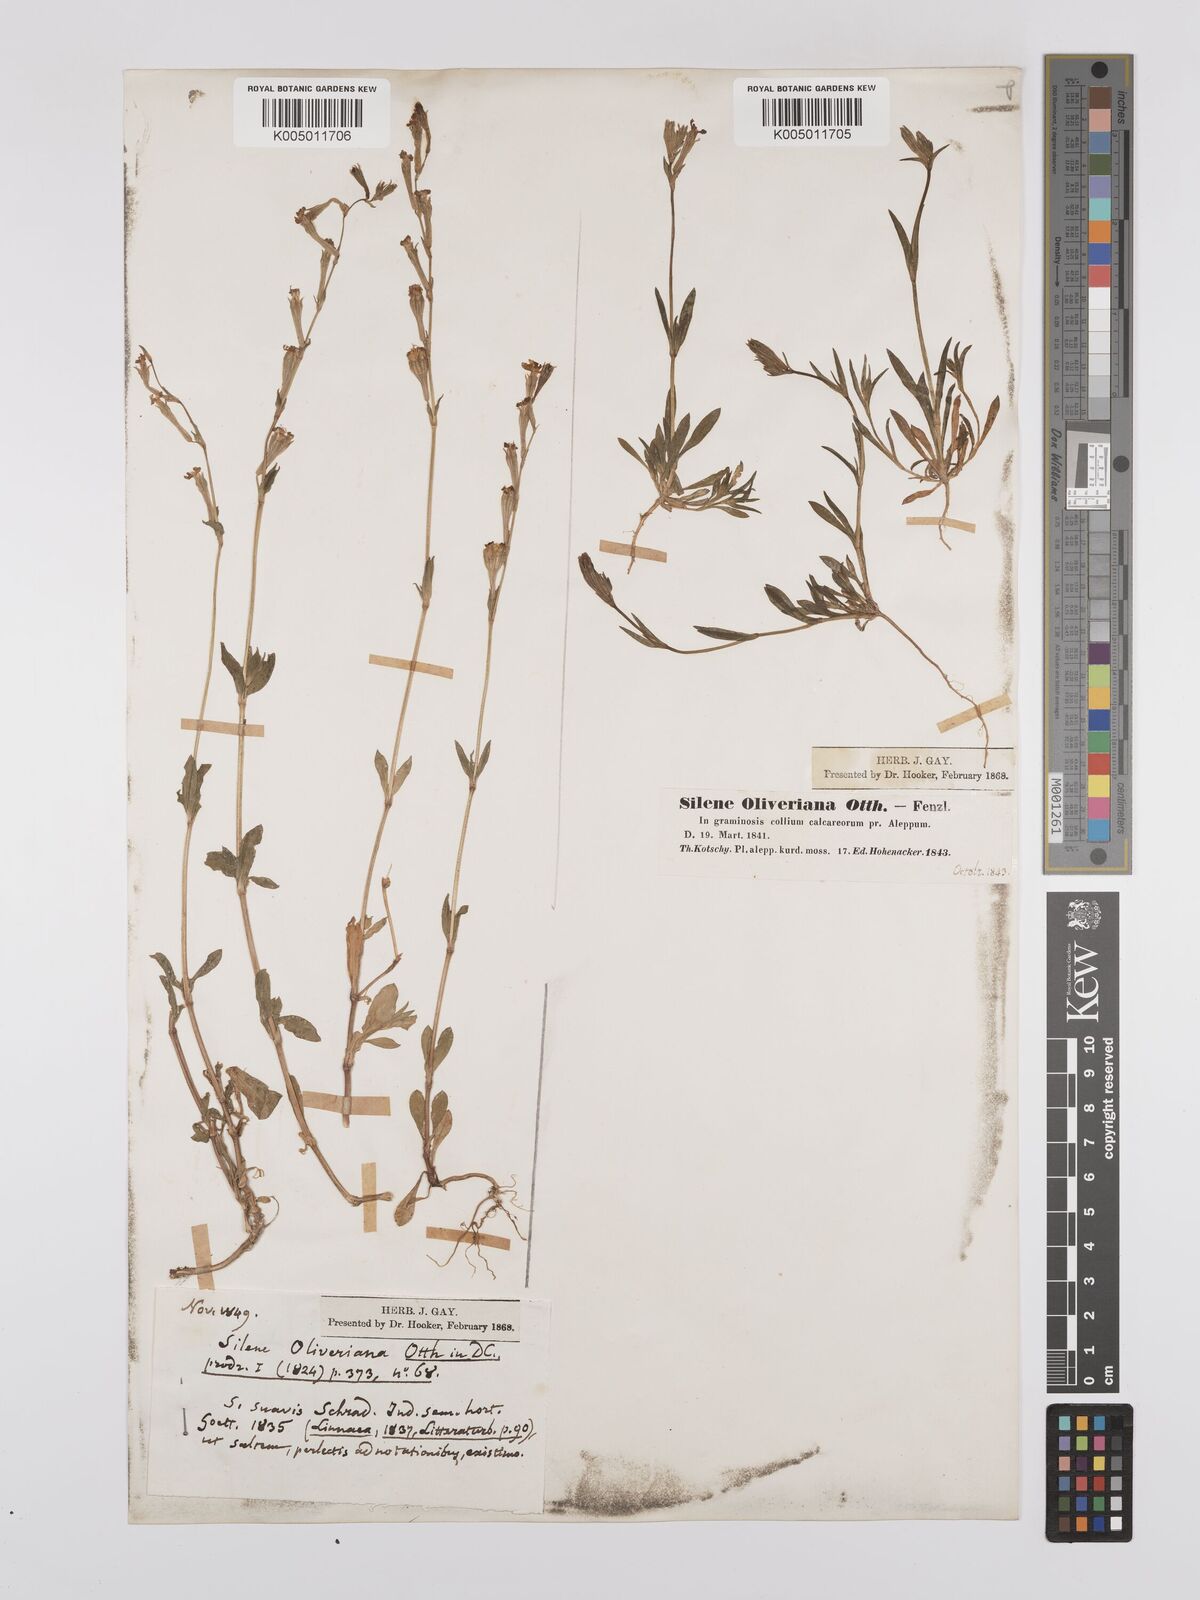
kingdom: Plantae
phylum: Tracheophyta
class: Magnoliopsida
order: Caryophyllales
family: Caryophyllaceae
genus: Silene
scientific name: Silene oliveriana
